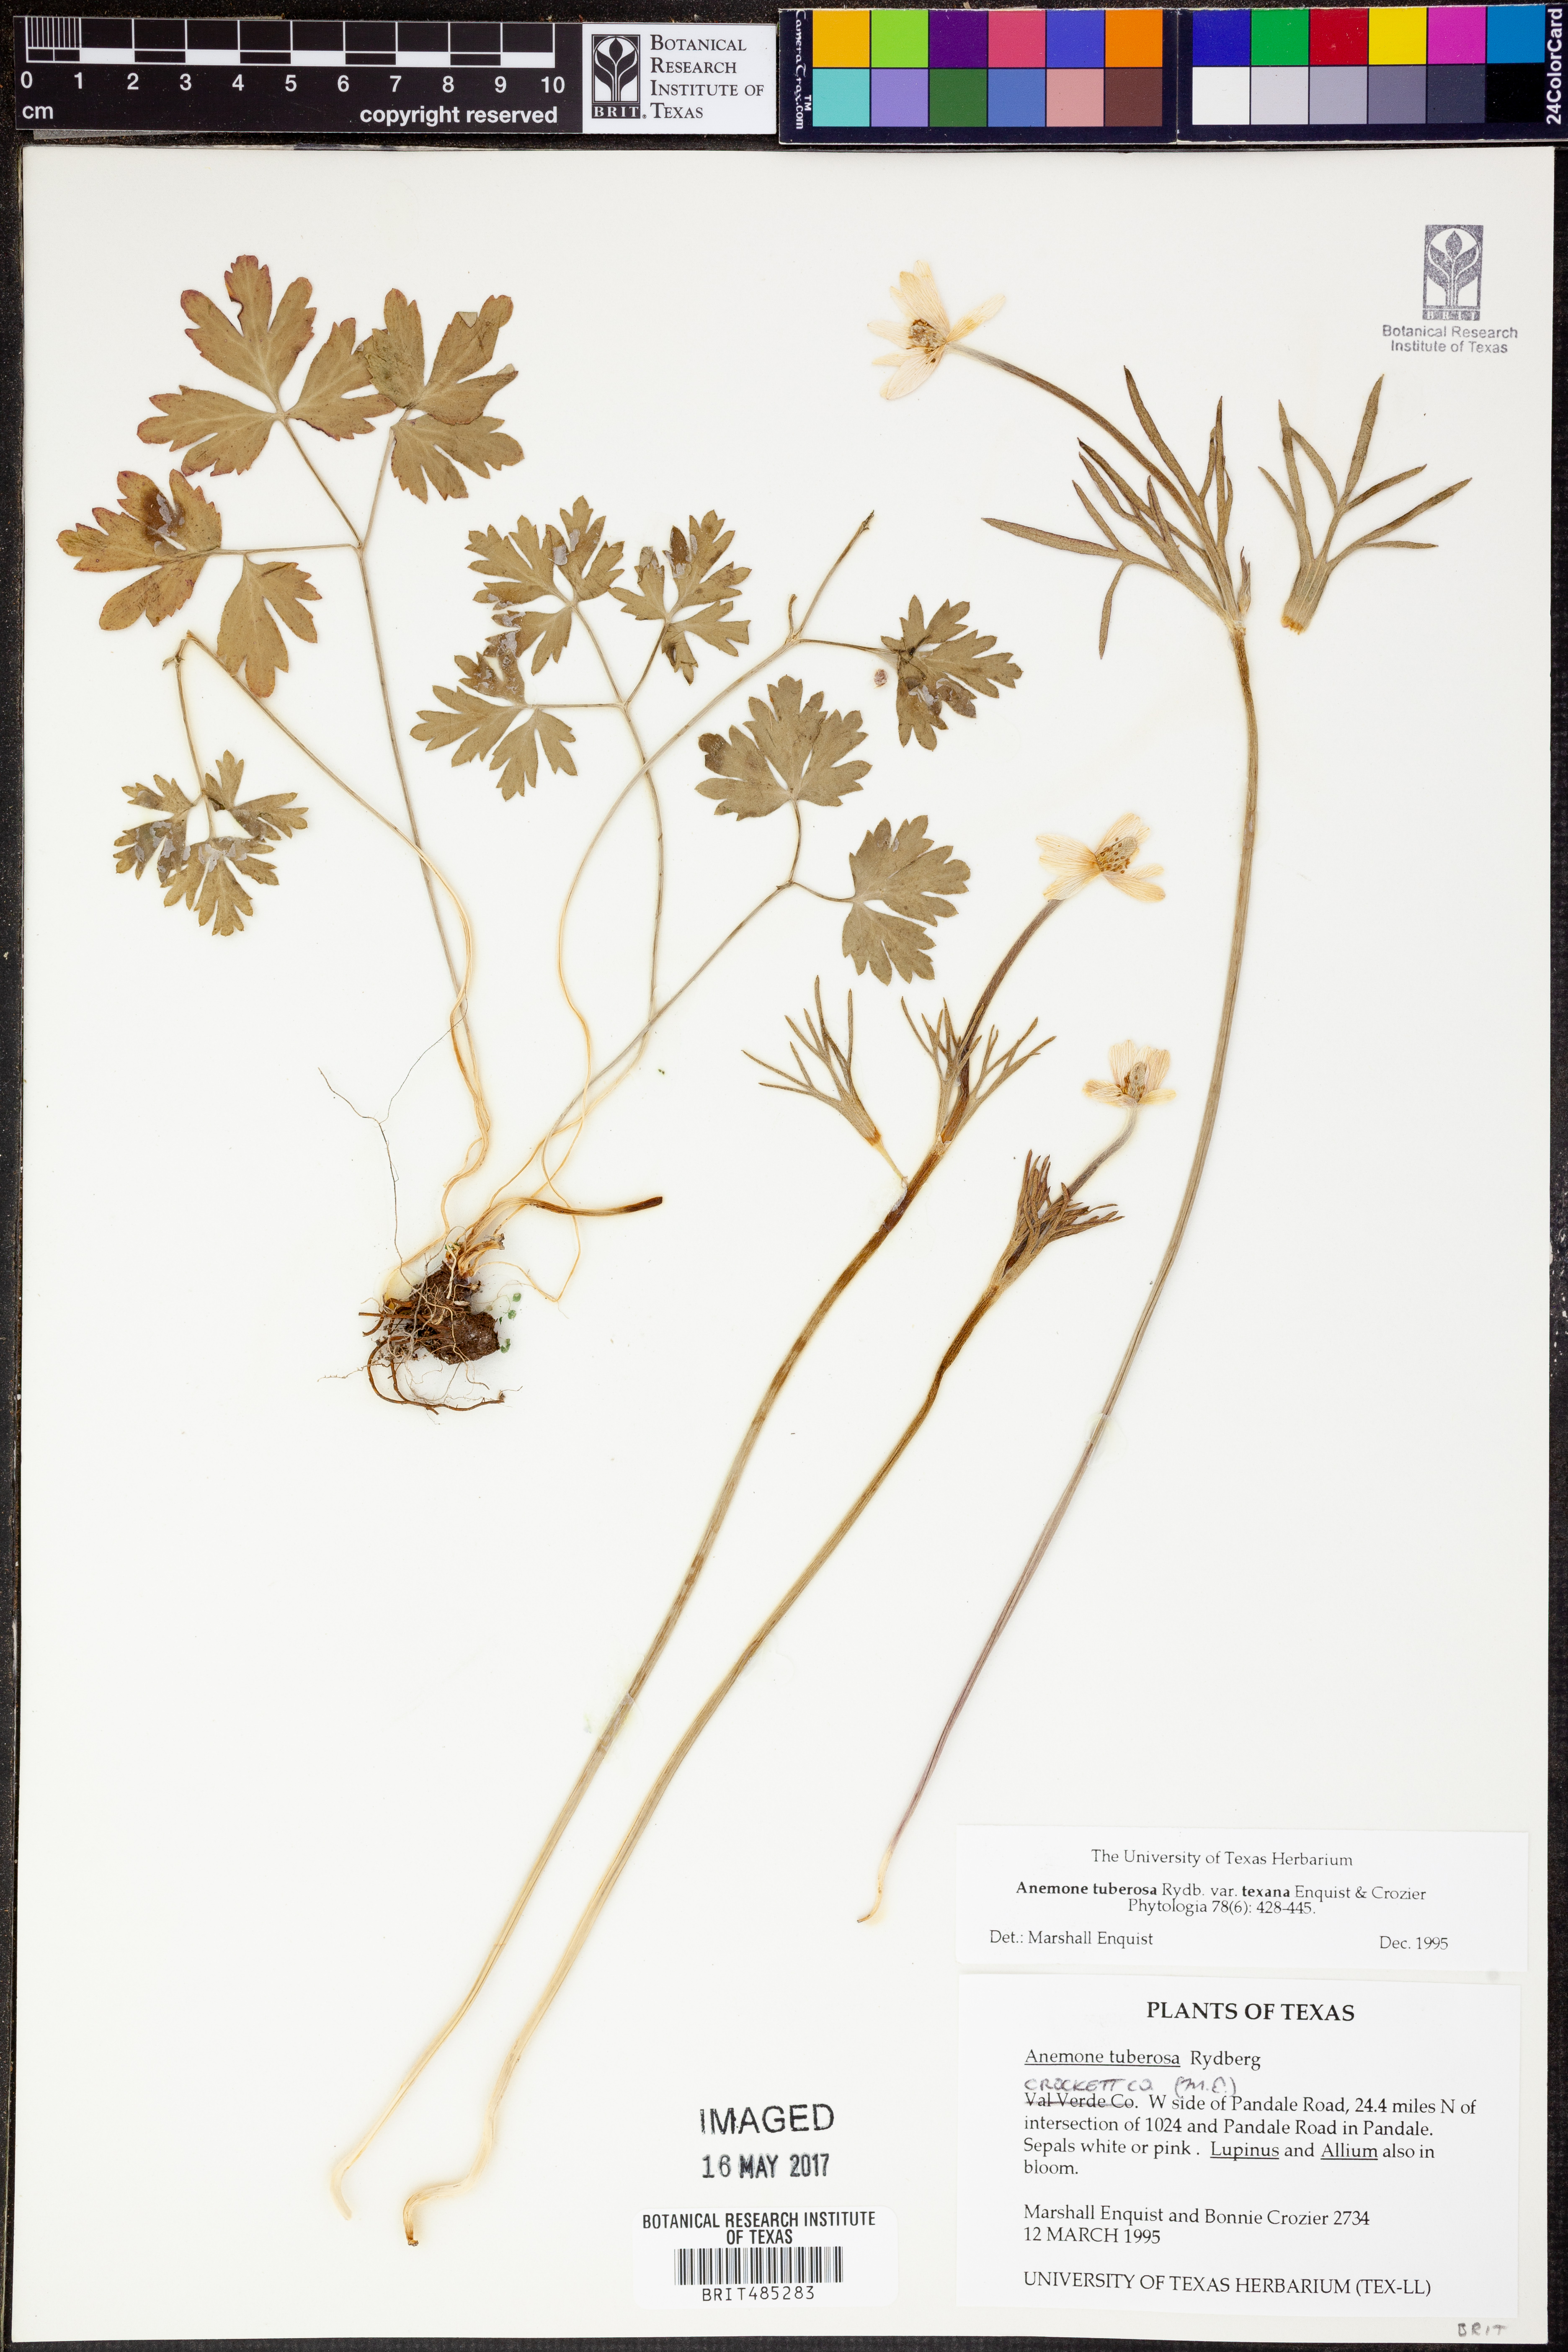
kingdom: Plantae
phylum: Tracheophyta
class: Magnoliopsida
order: Ranunculales
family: Ranunculaceae
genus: Anemone
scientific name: Anemone tuberosa
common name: Desert anemone
